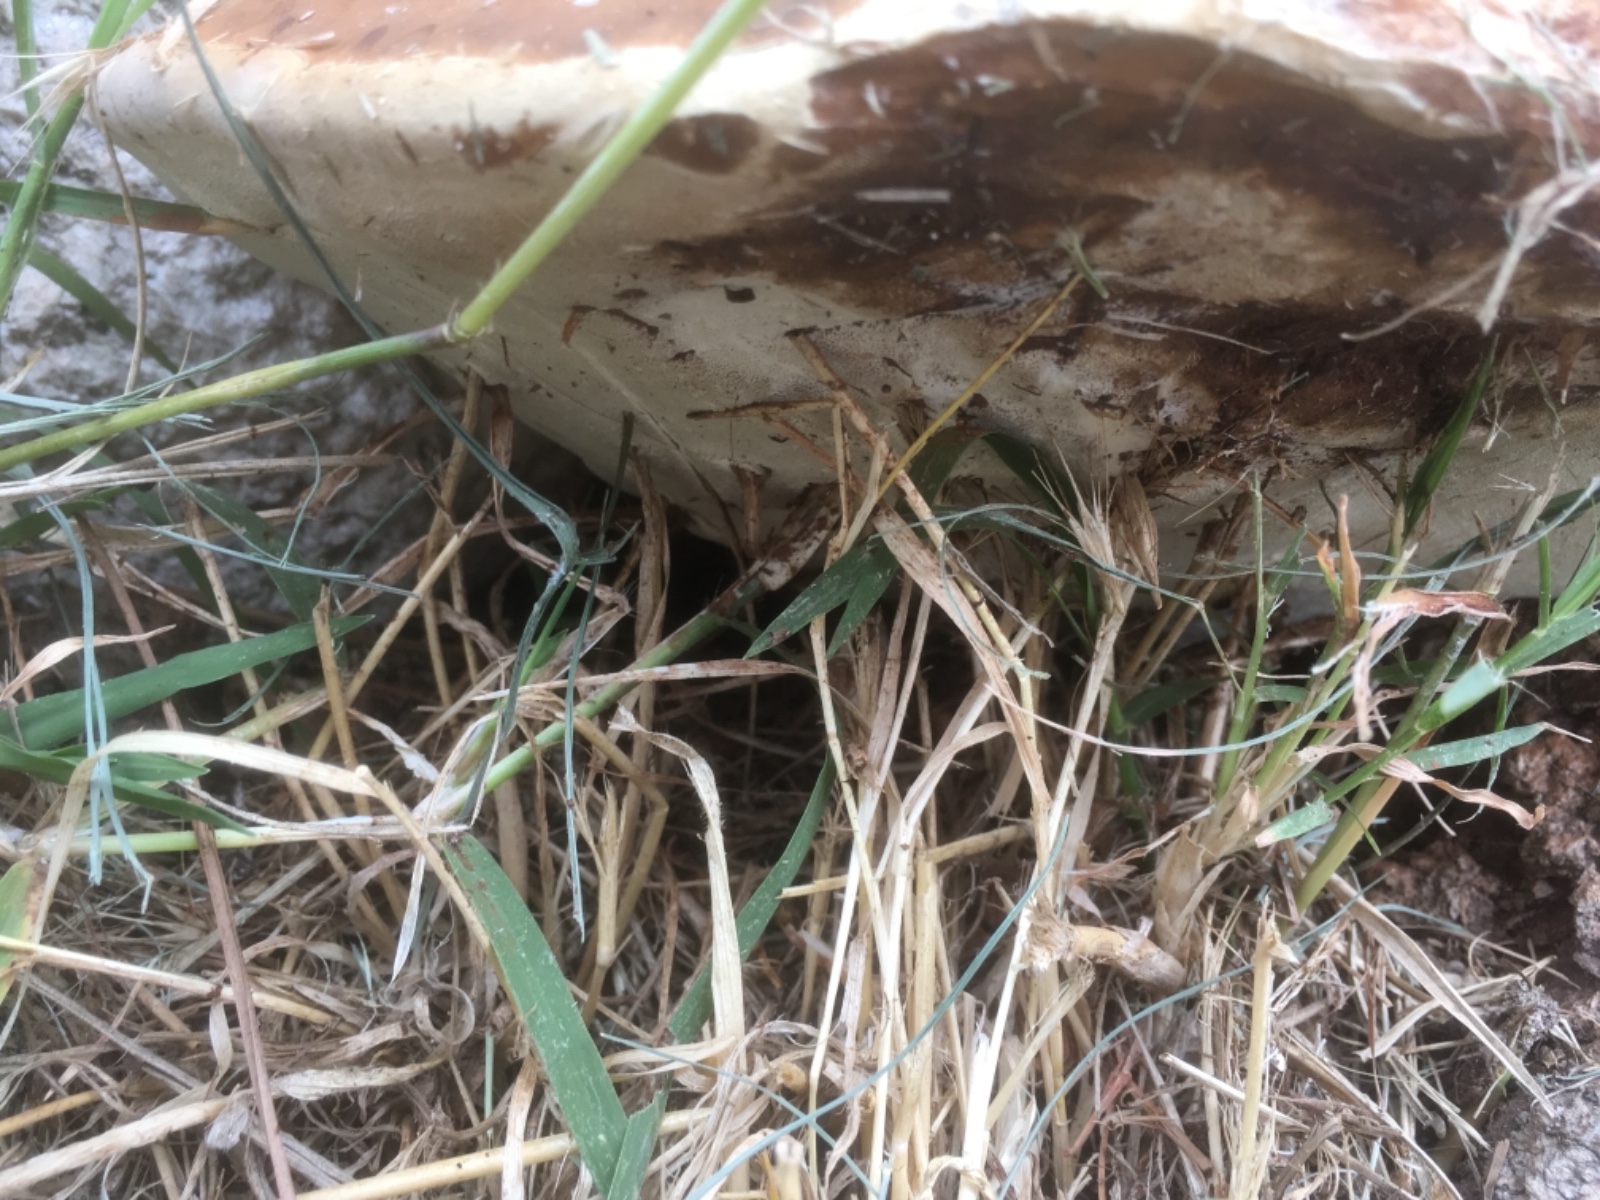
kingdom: Fungi
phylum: Basidiomycota
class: Agaricomycetes
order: Polyporales
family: Polyporaceae
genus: Ganoderma
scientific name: Ganoderma resinaceum
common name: gyldenbrun lakporesvamp
